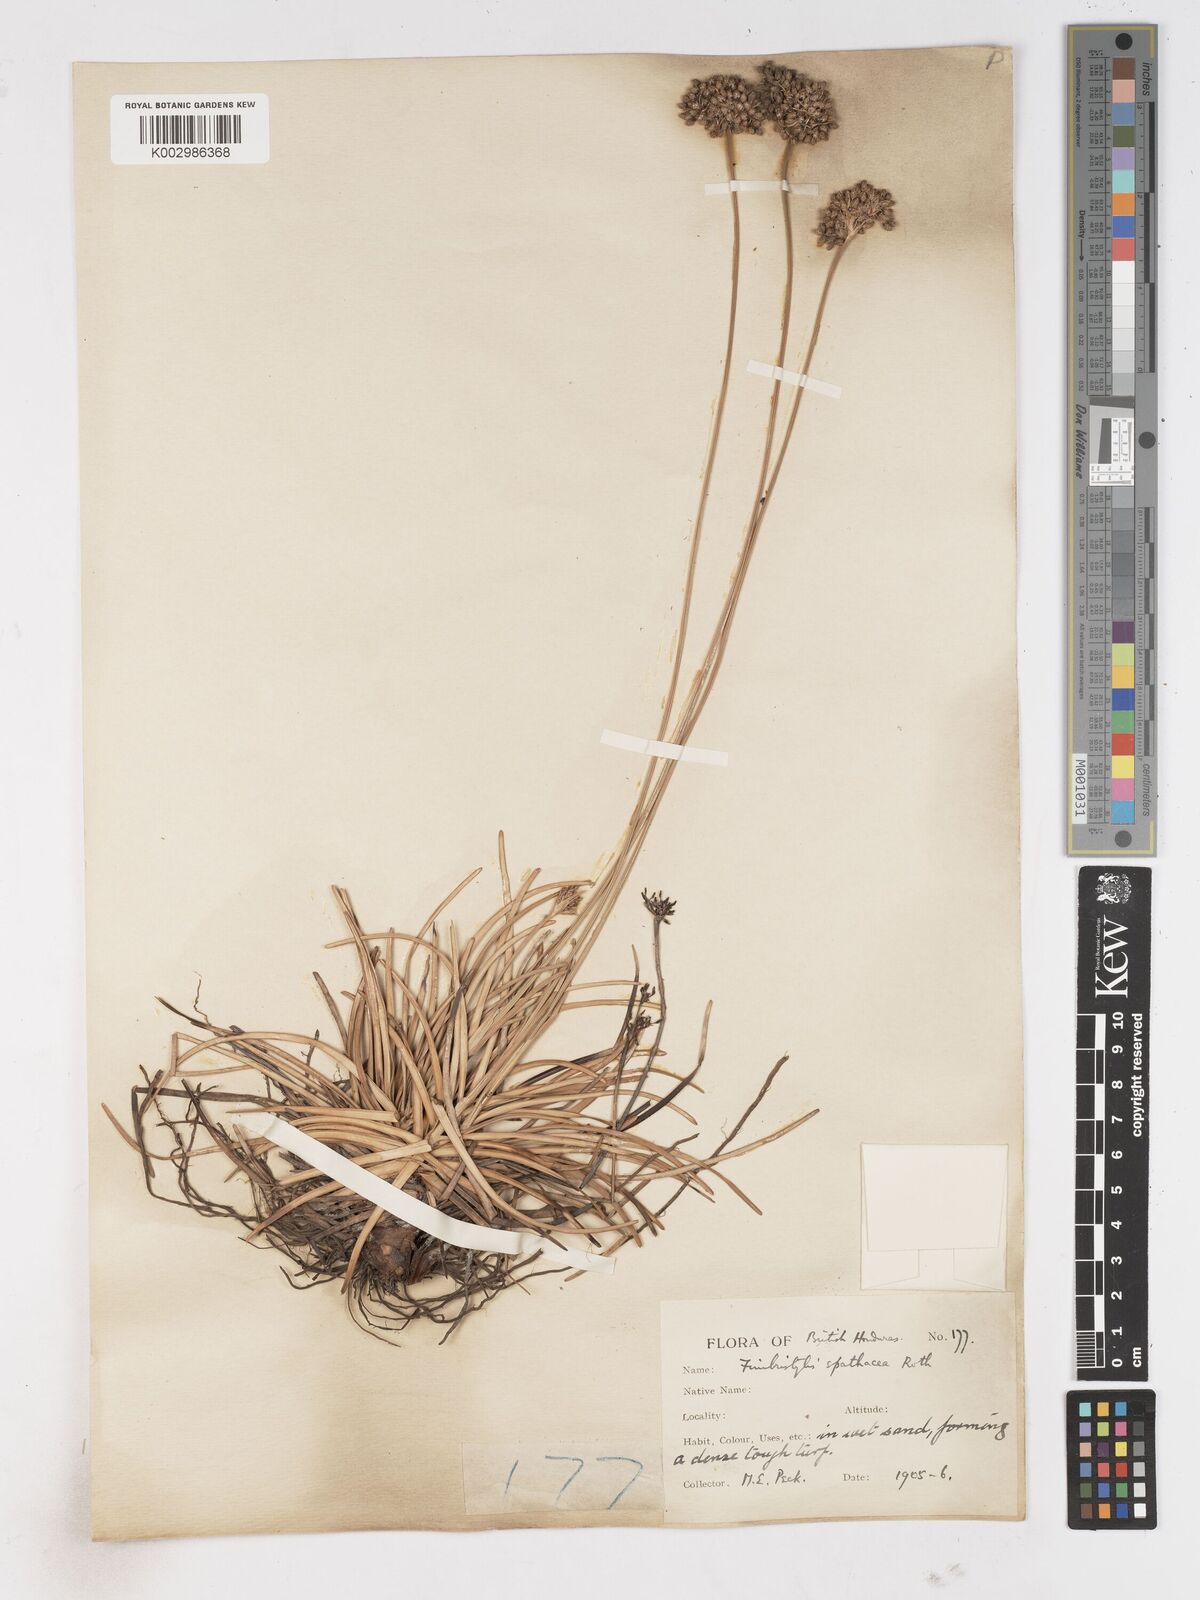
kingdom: Plantae
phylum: Tracheophyta
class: Liliopsida
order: Poales
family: Cyperaceae
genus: Fimbristylis
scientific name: Fimbristylis cymosa
